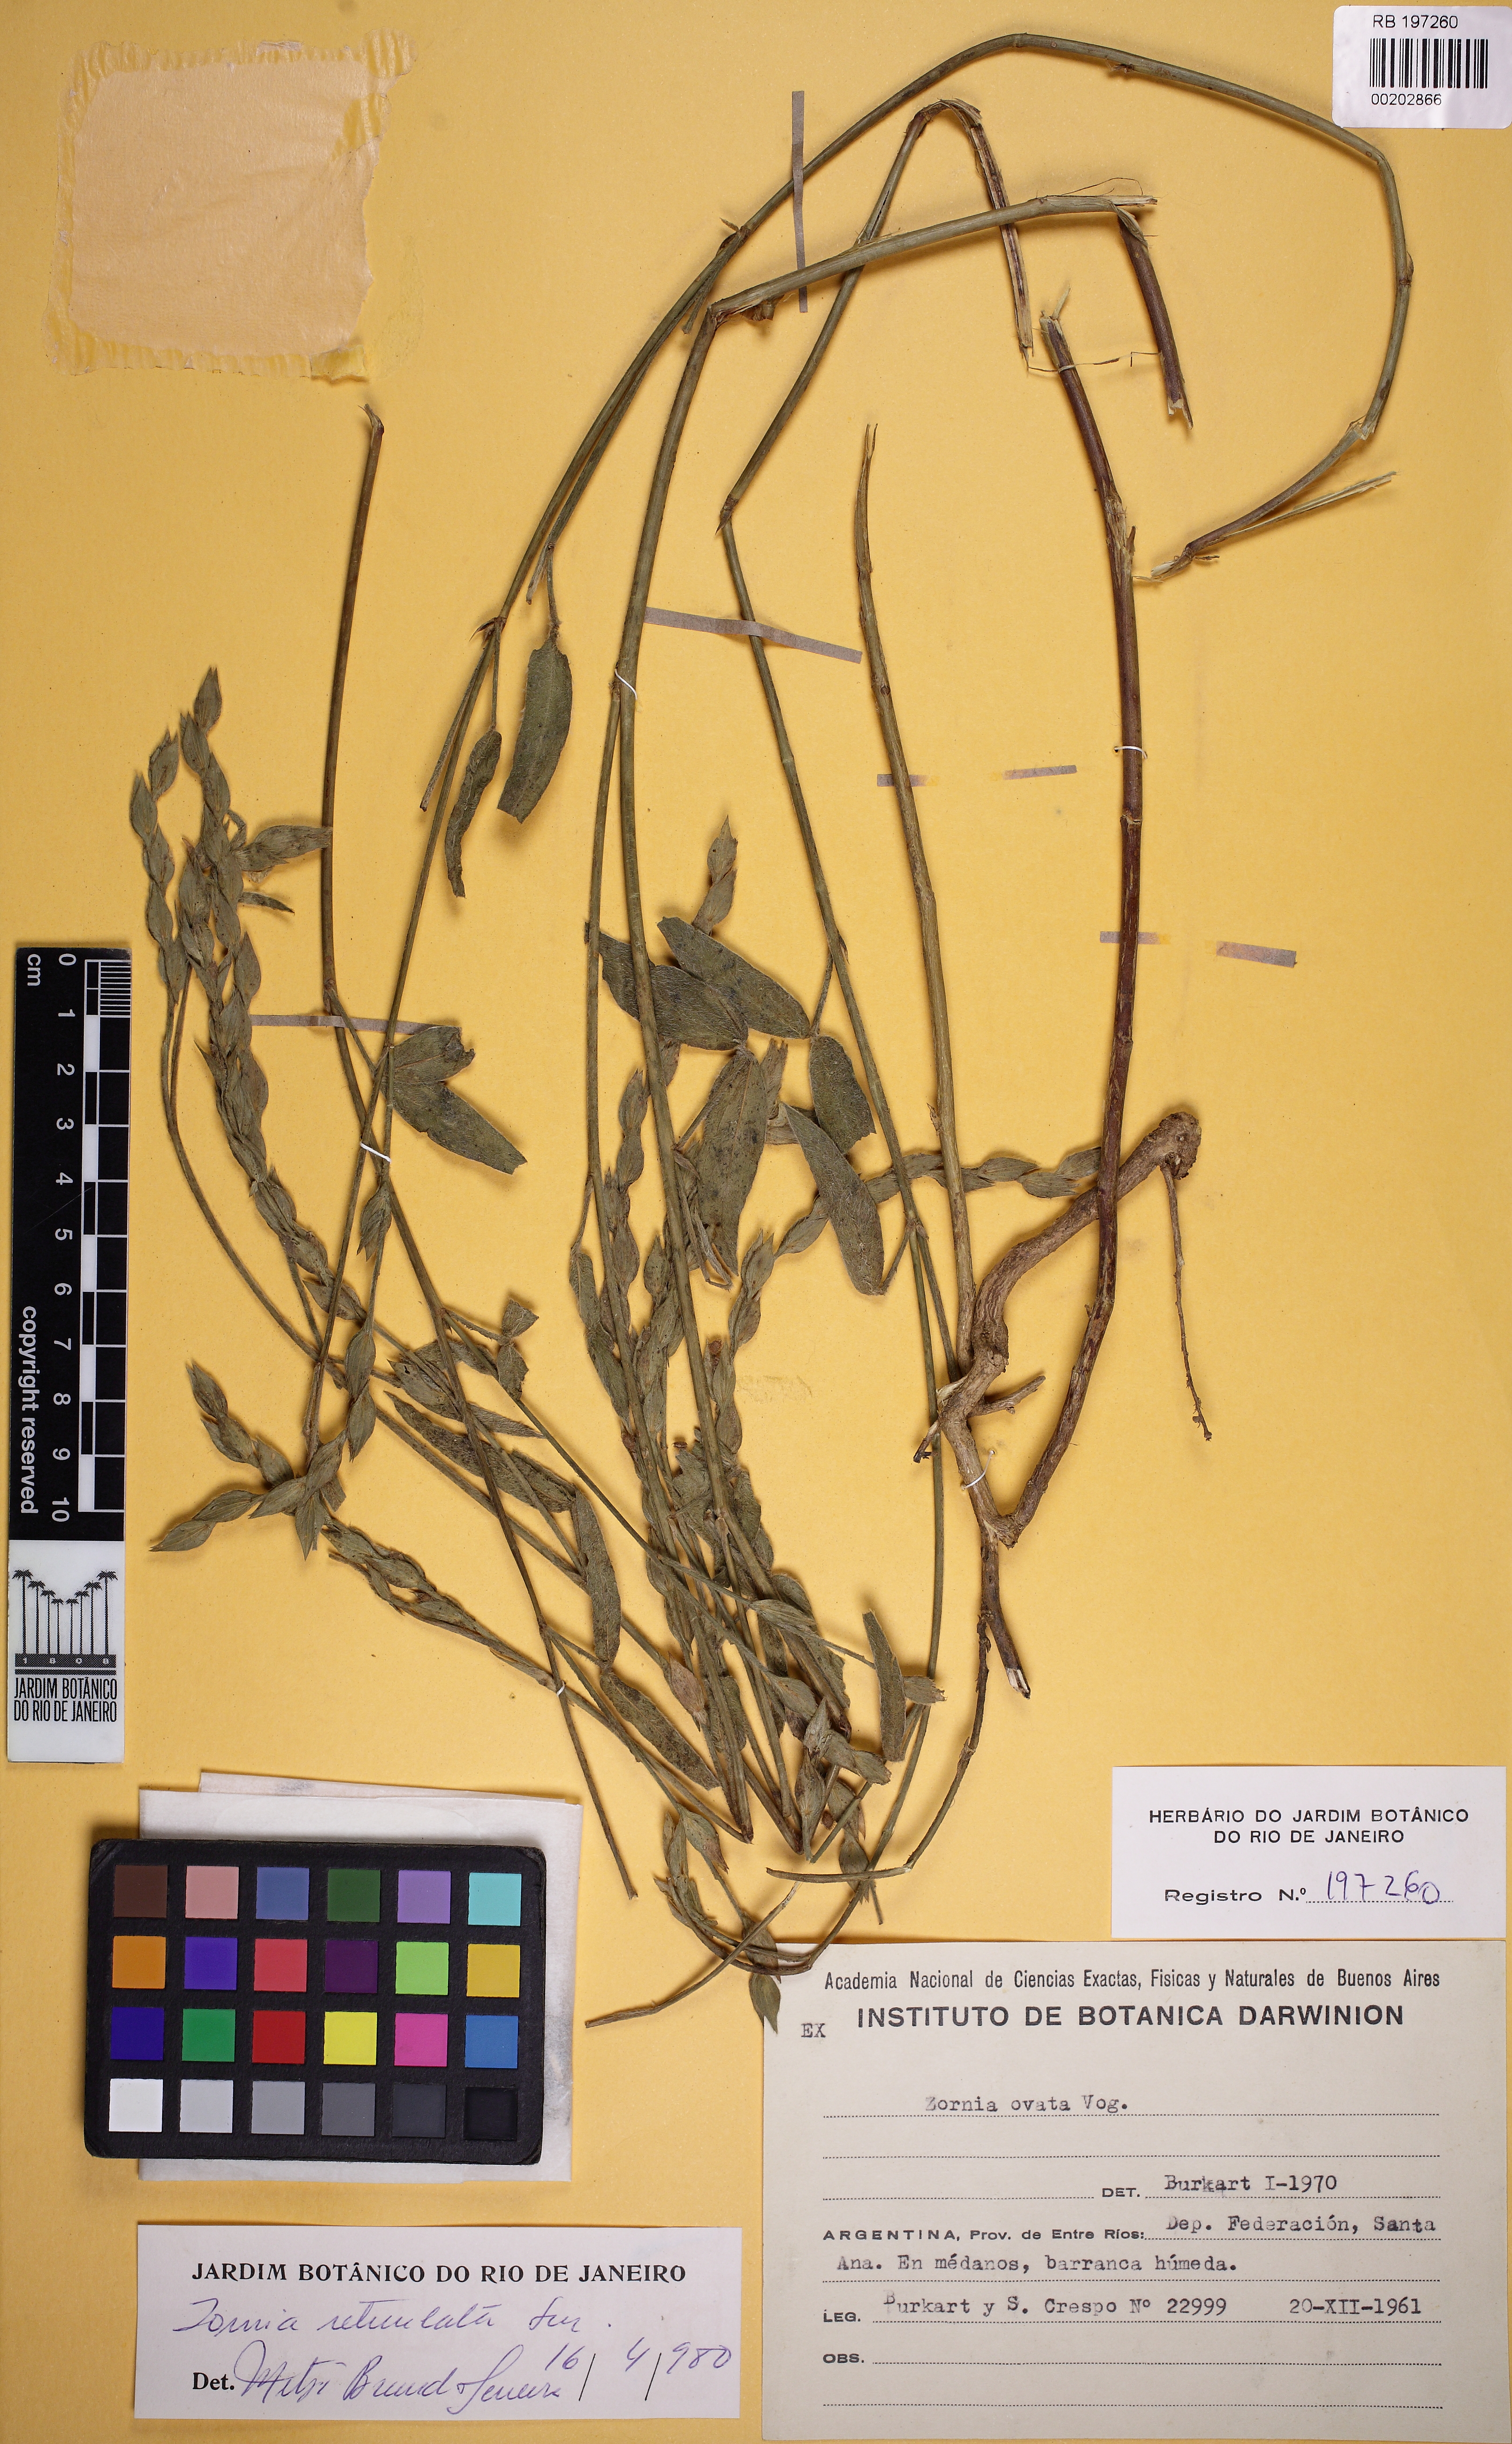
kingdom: Plantae
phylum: Tracheophyta
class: Magnoliopsida
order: Fabales
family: Fabaceae
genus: Zornia
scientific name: Zornia reticulata
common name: Reticulate viperina
